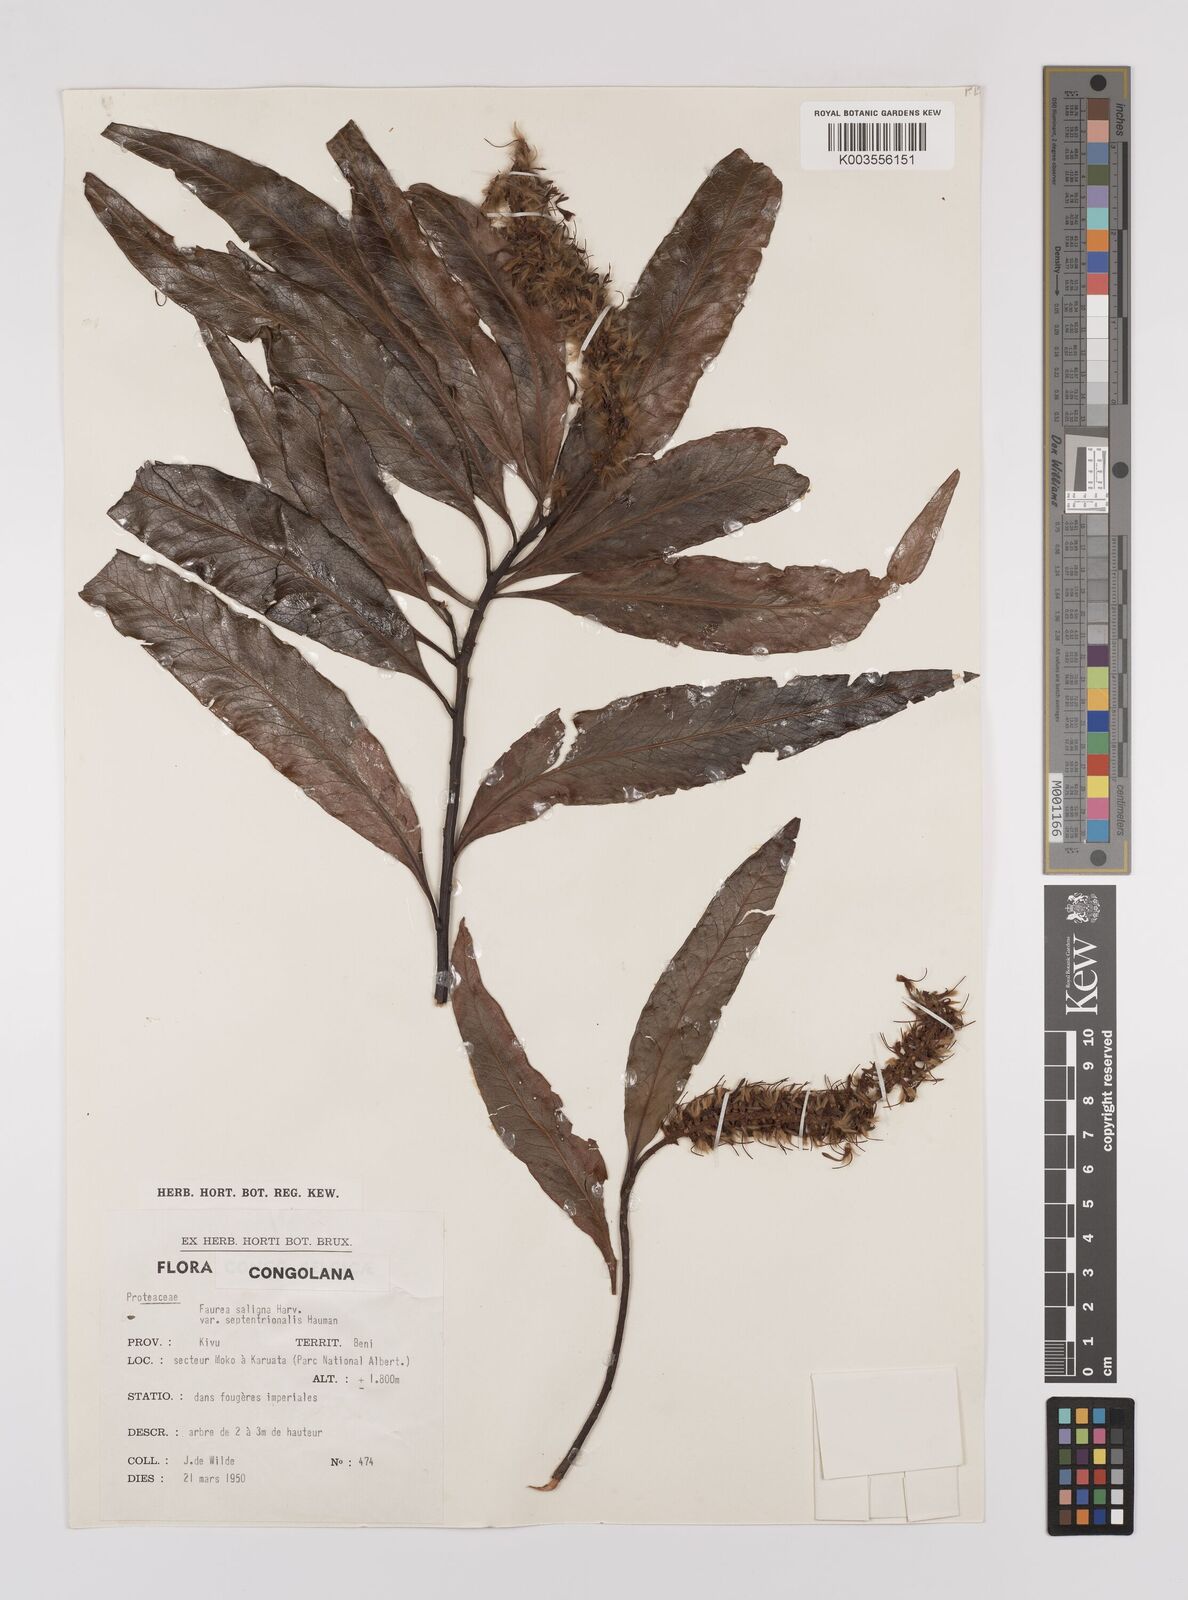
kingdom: Plantae
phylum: Tracheophyta
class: Magnoliopsida
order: Proteales
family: Proteaceae
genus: Faurea
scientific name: Faurea saligna
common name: African bean
